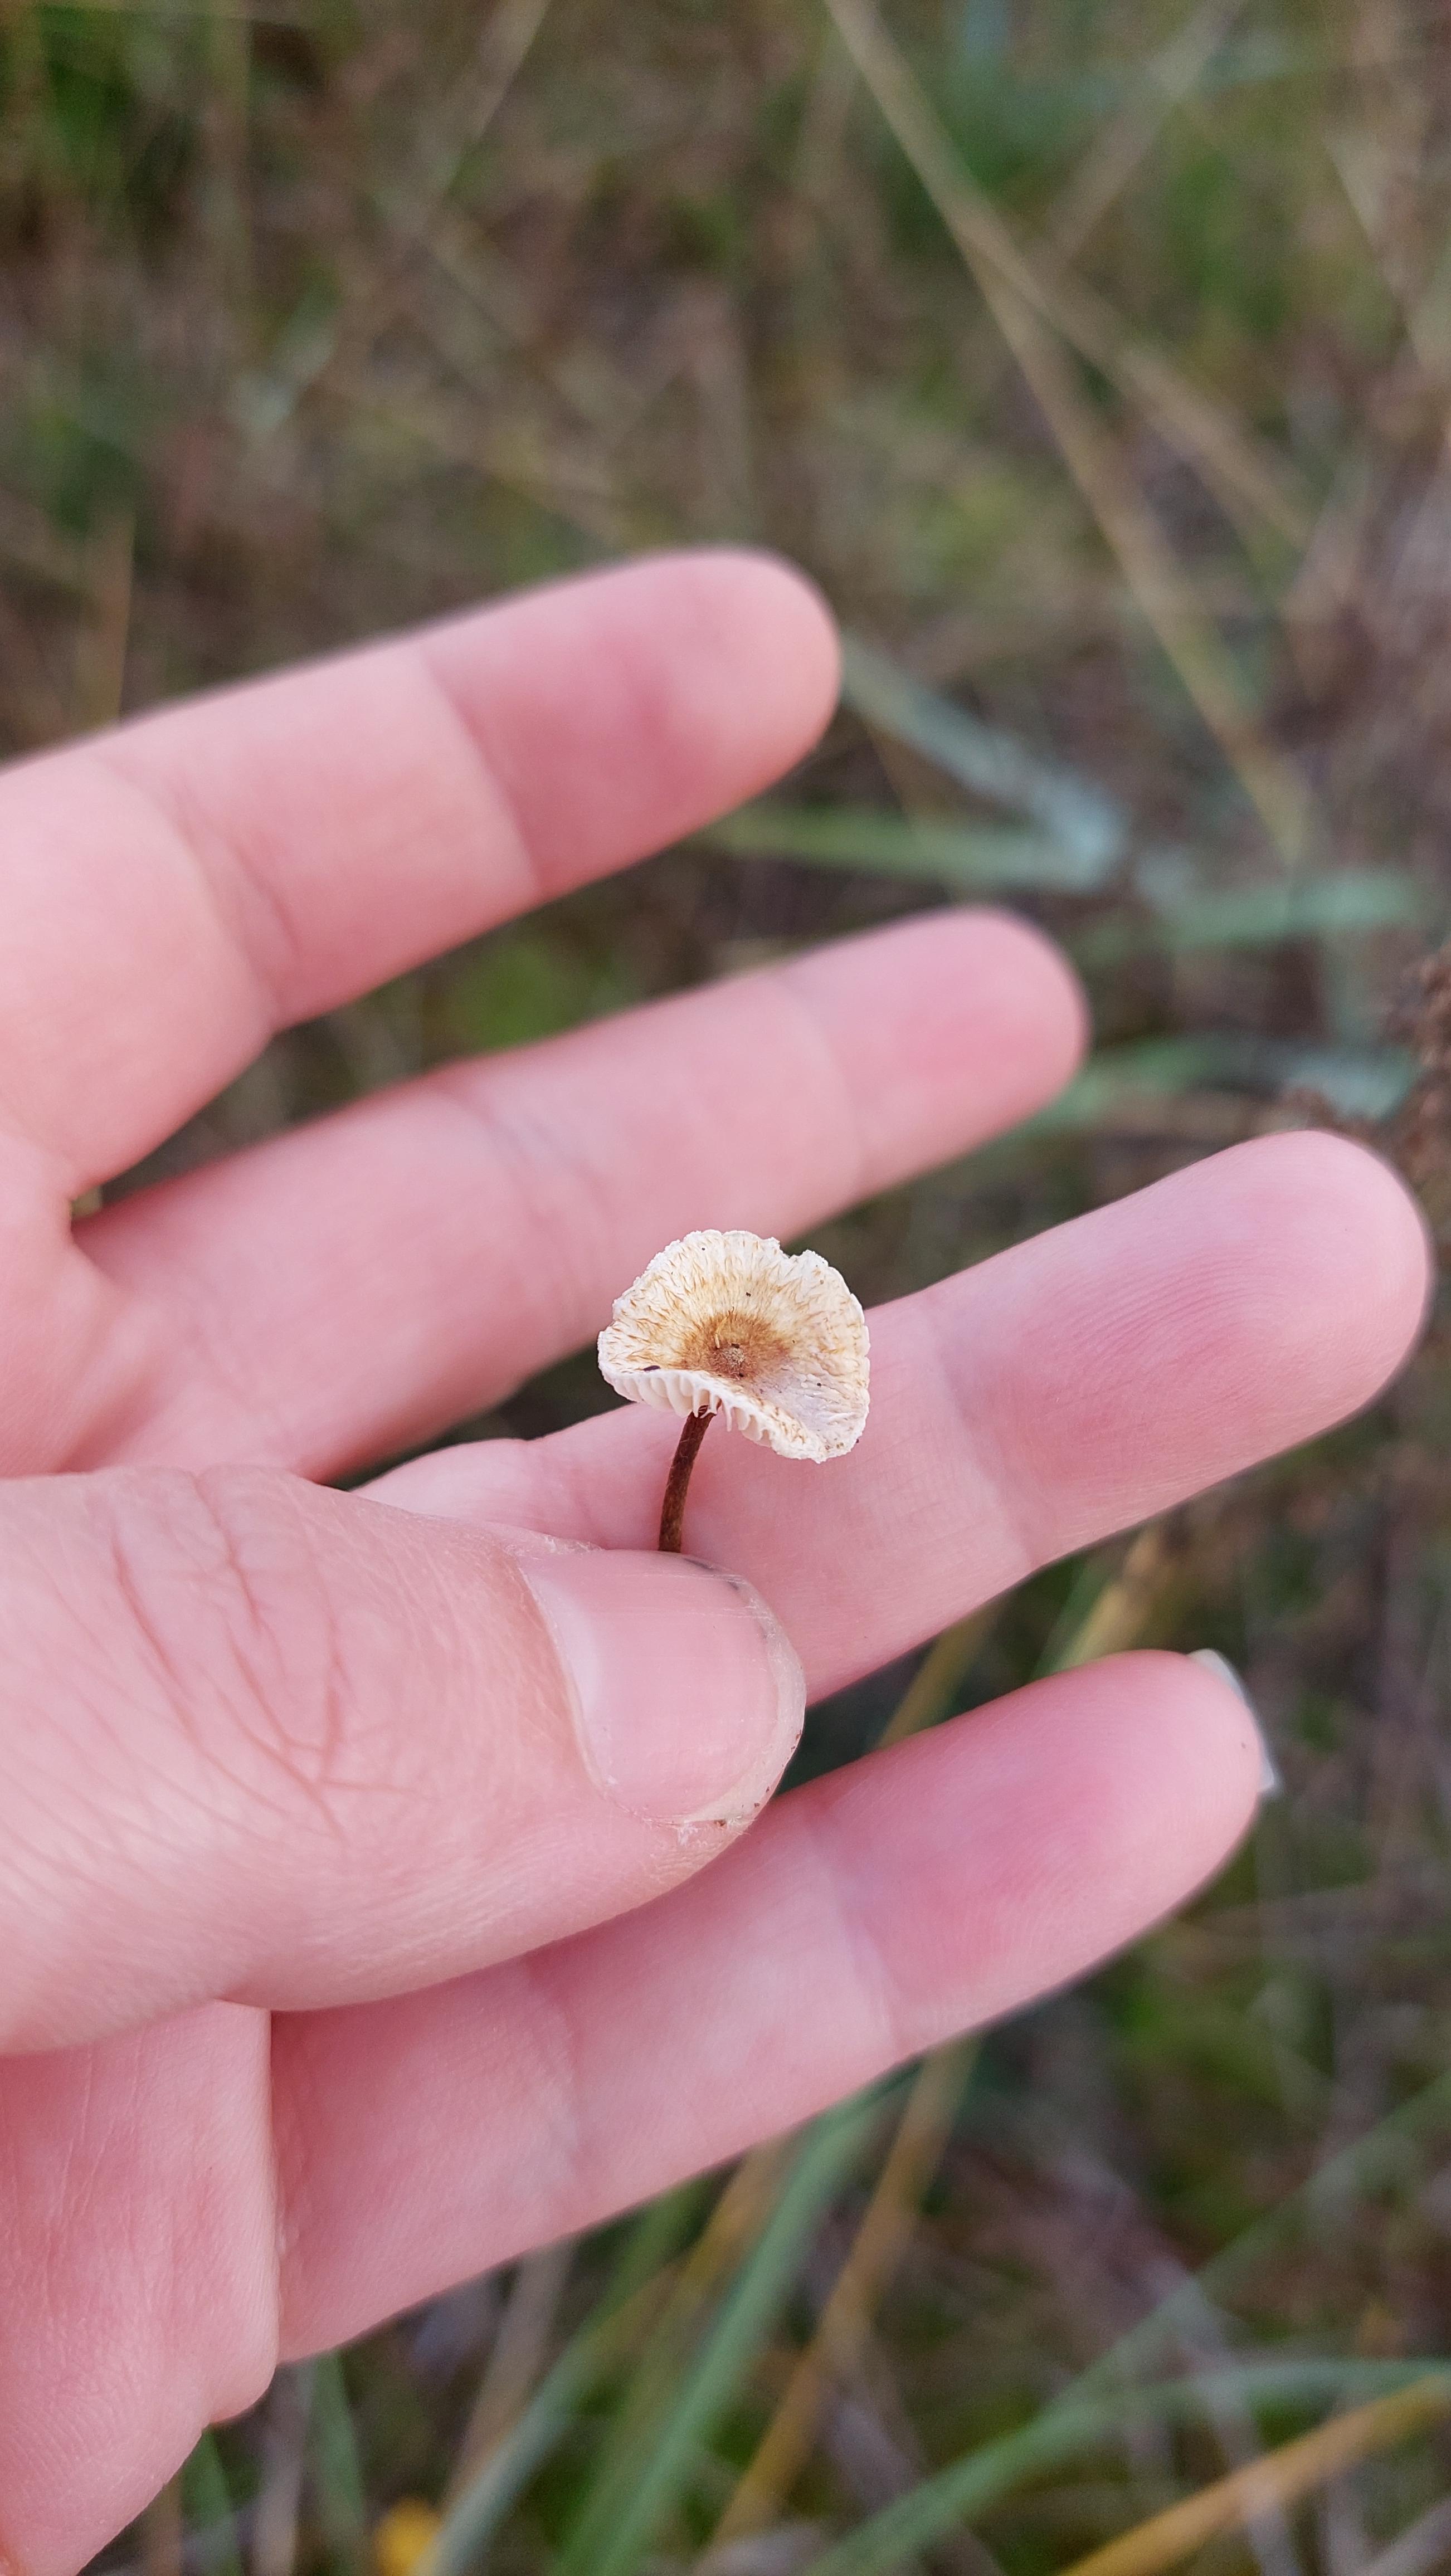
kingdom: Fungi
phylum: Basidiomycota
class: Agaricomycetes
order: Agaricales
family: Marasmiaceae
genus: Crinipellis
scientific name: Crinipellis scabella
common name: børstefod
